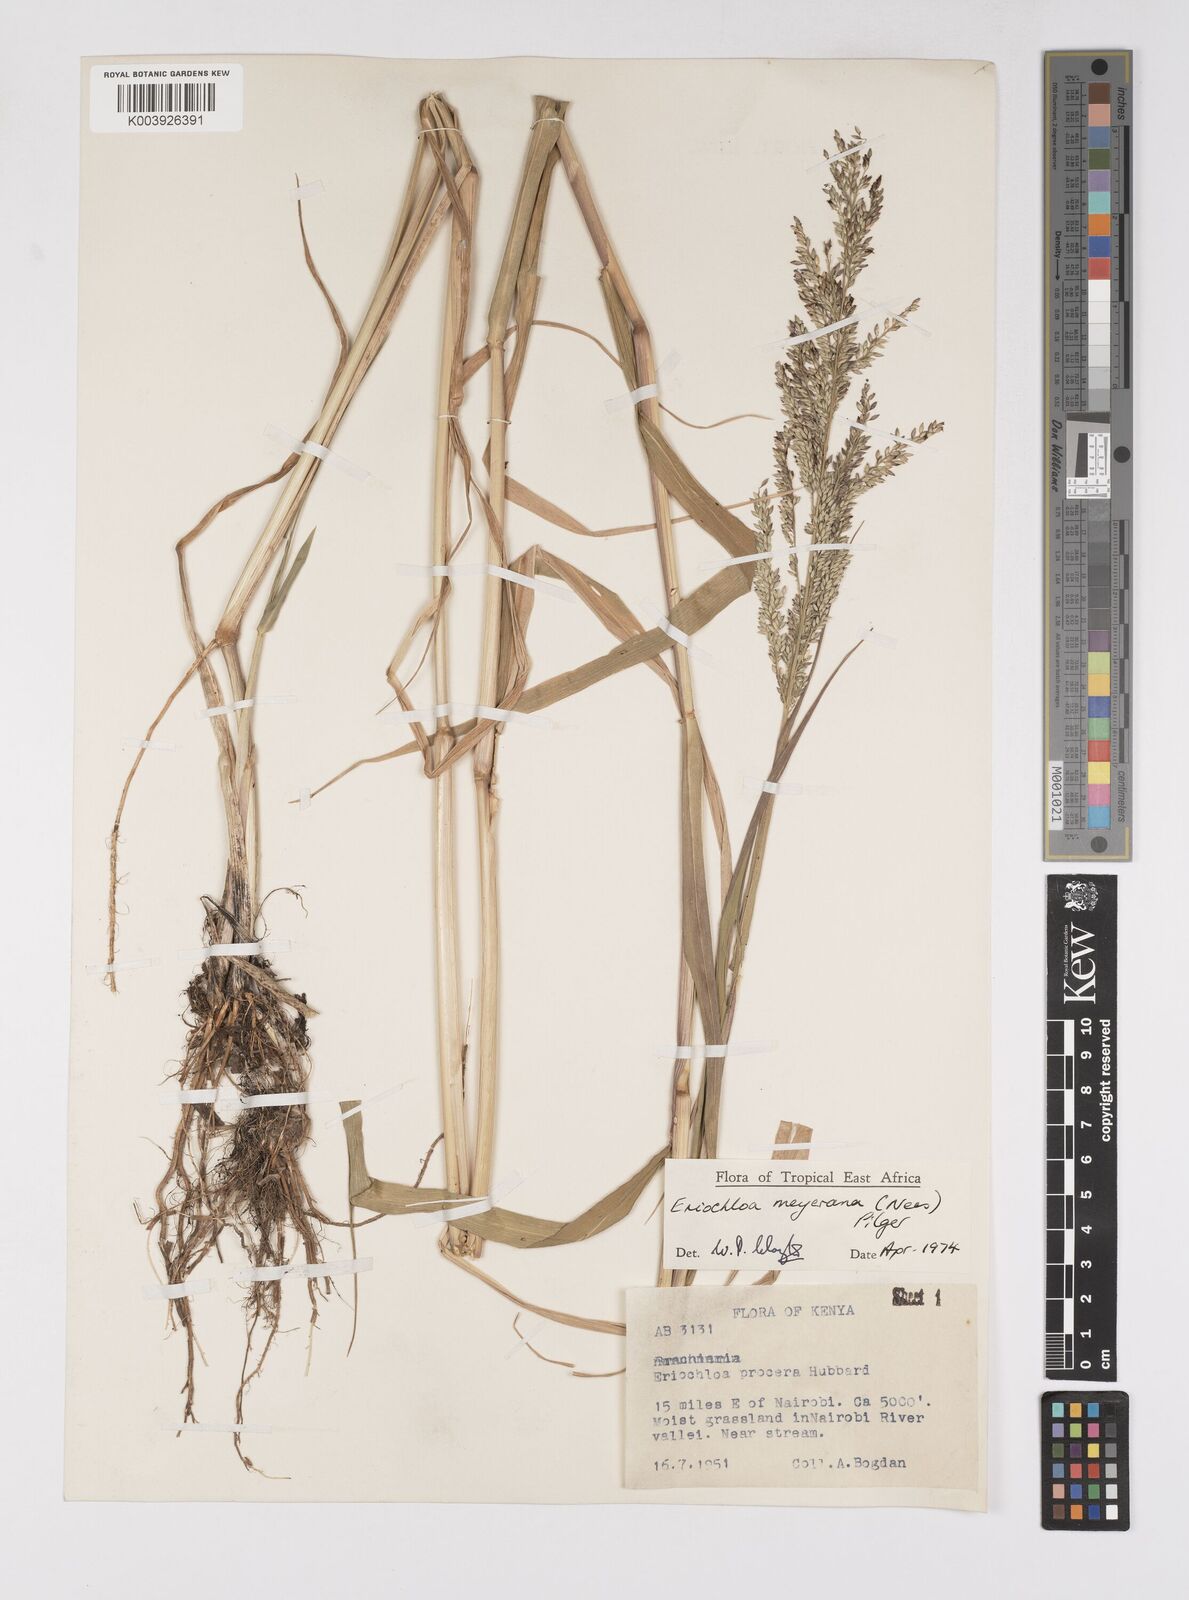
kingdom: Plantae
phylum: Tracheophyta
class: Liliopsida
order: Poales
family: Poaceae
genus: Eriochloa
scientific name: Eriochloa meyeriana
